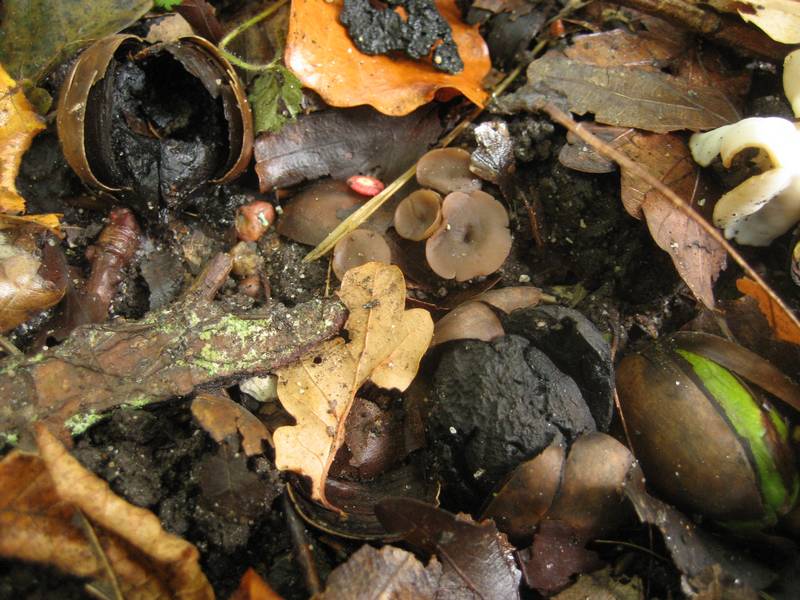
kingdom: Fungi
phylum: Ascomycota
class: Leotiomycetes
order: Helotiales
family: Sclerotiniaceae
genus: Ciboria
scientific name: Ciboria batschiana
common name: agern-knoldskive
